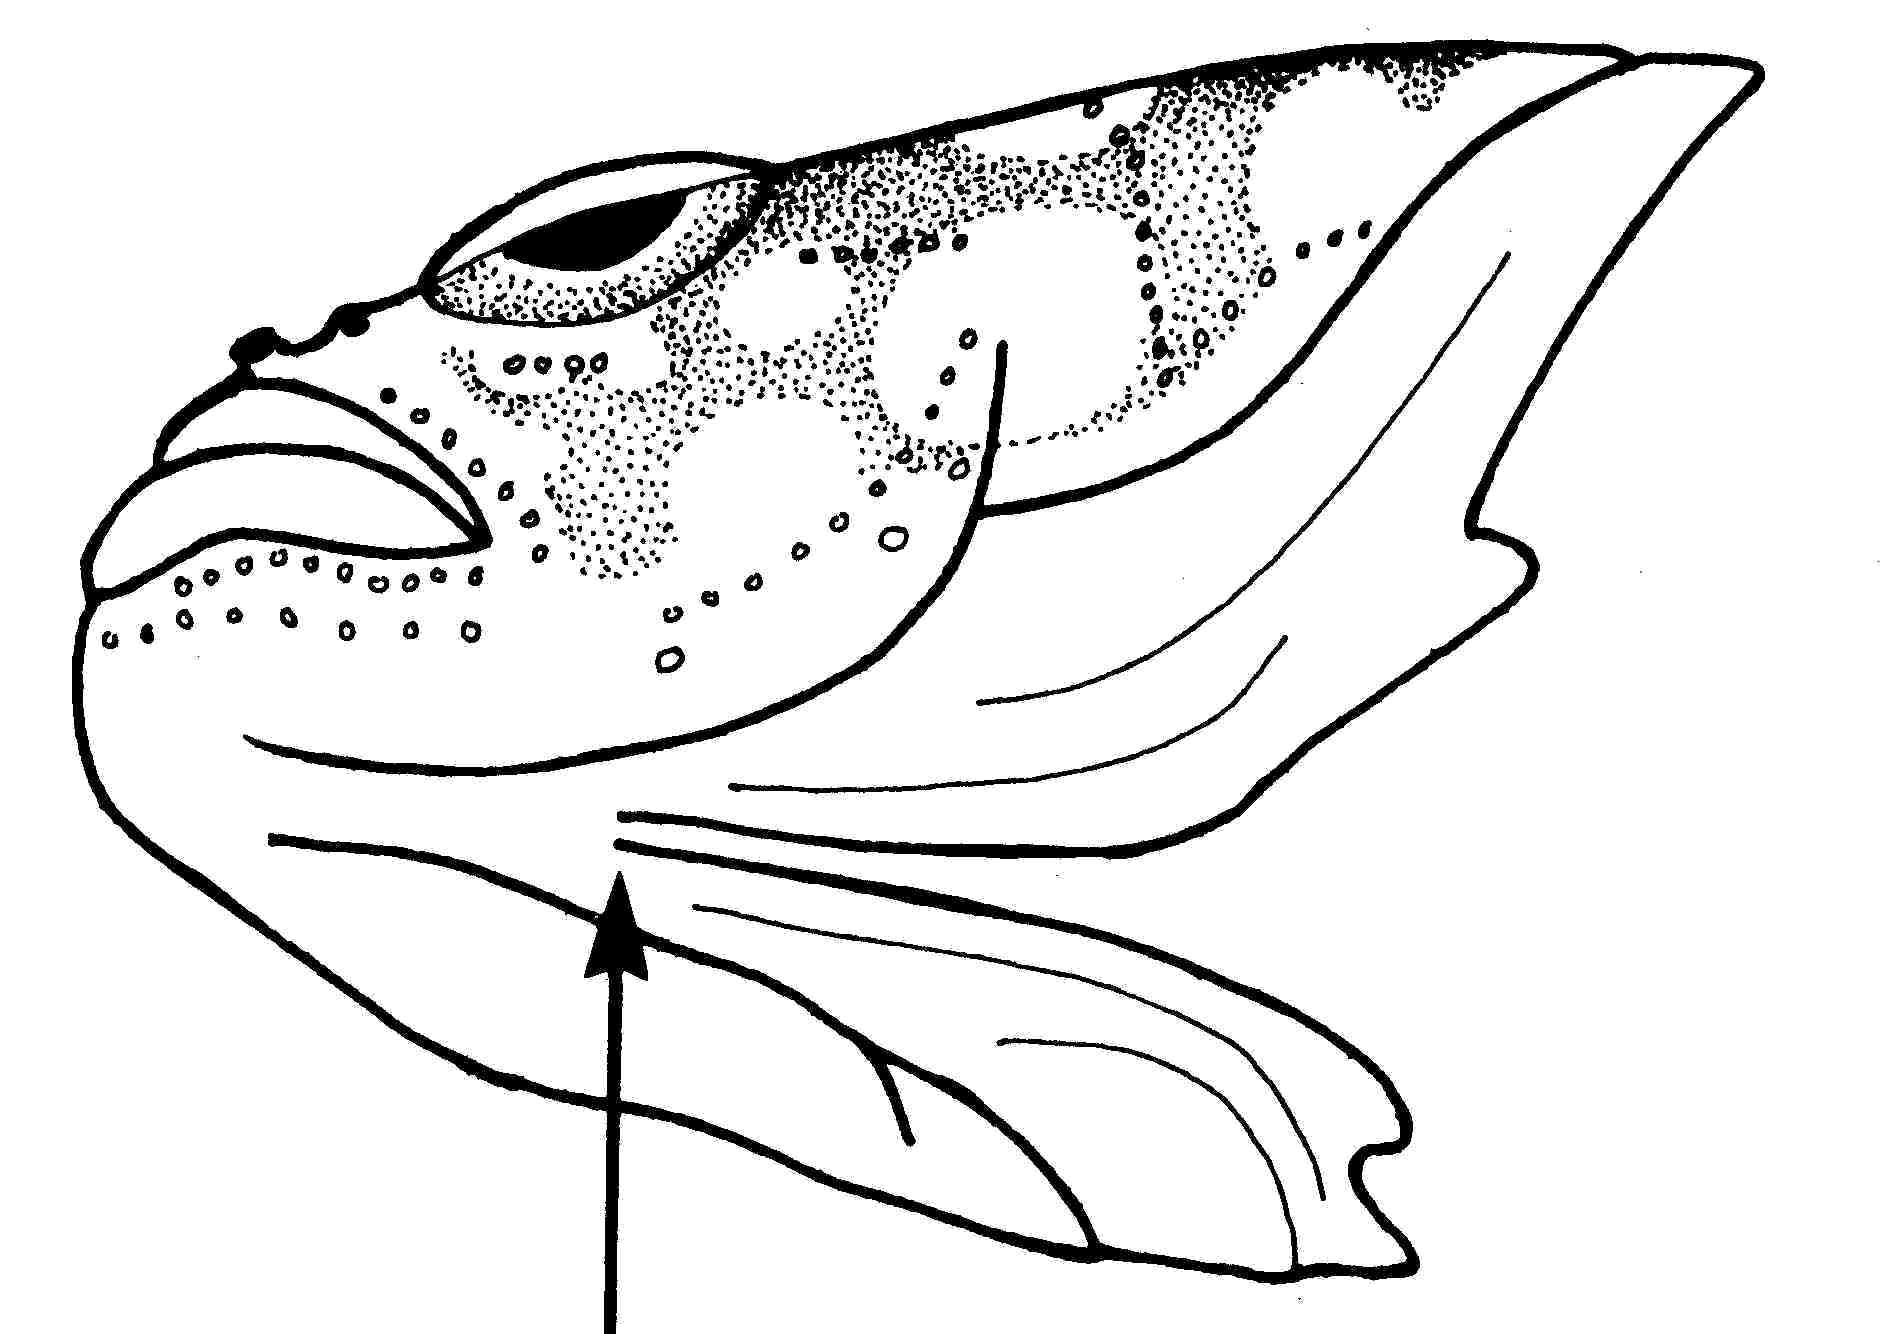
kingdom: Animalia
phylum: Chordata
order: Perciformes
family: Gobiidae
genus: Trimma
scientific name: Trimma flammeum
